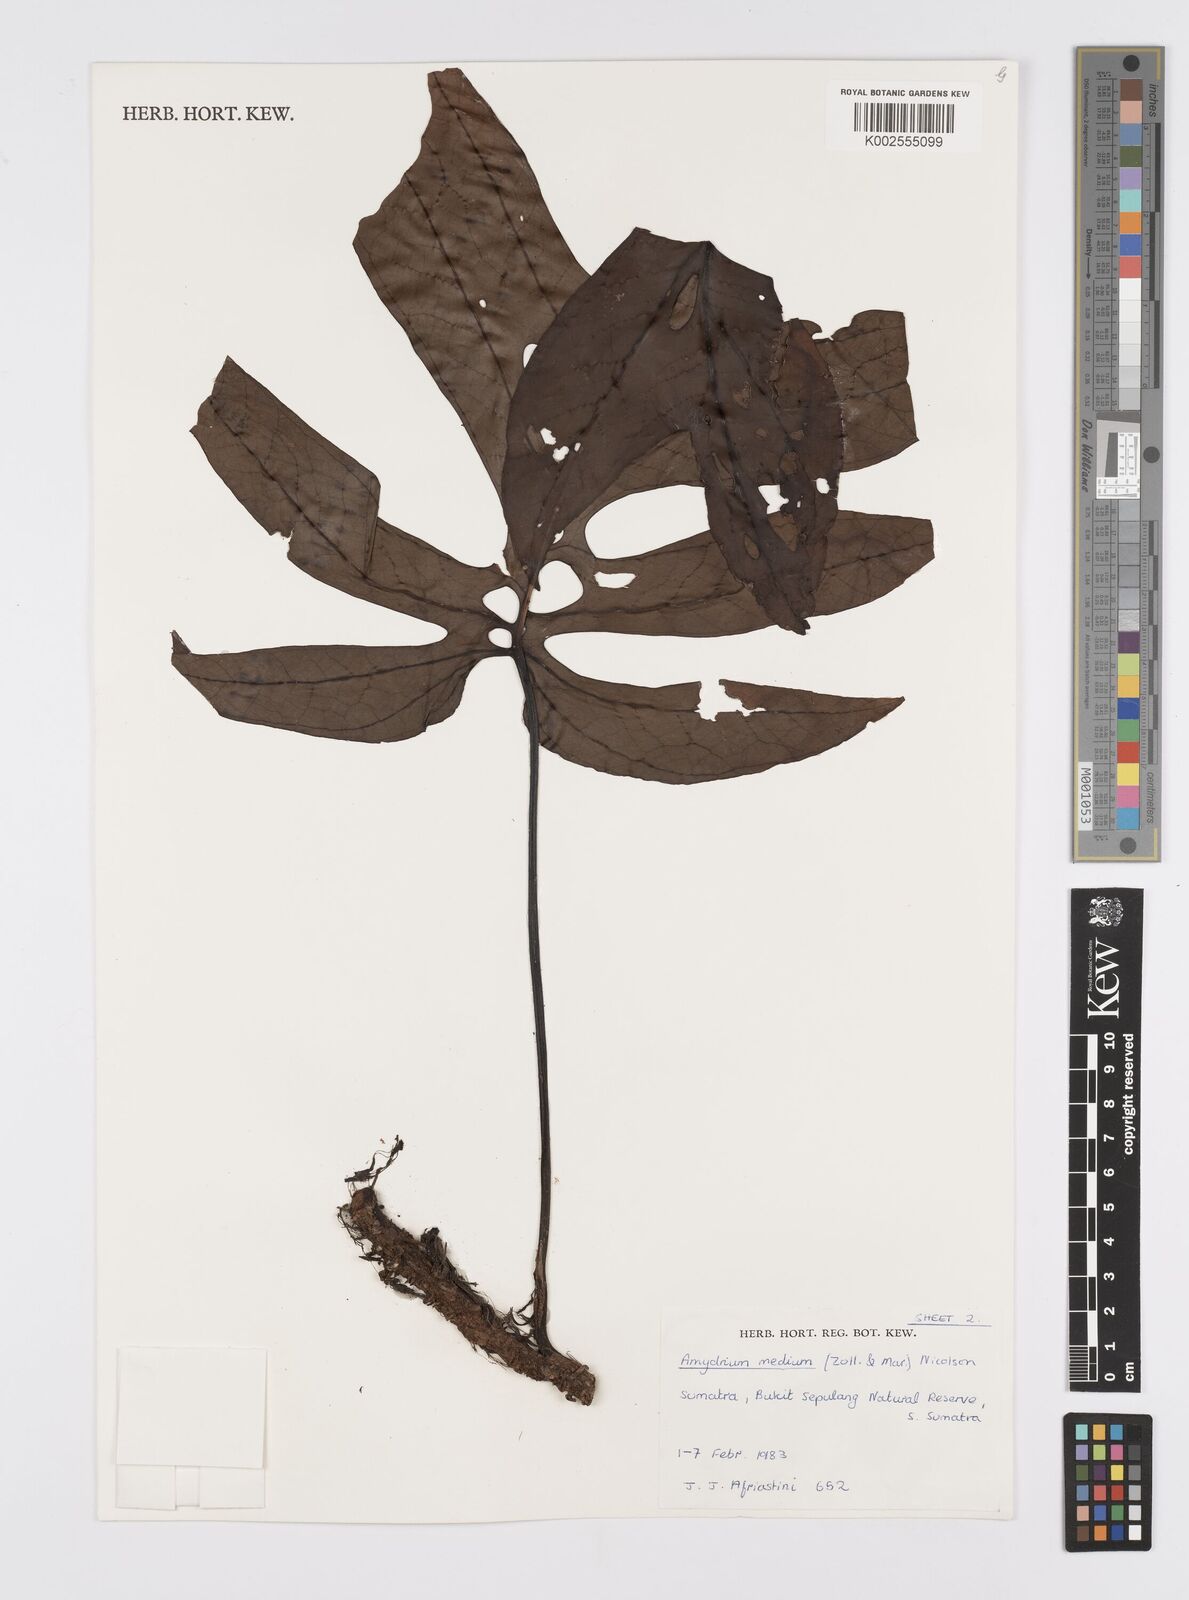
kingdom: Plantae
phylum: Tracheophyta
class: Liliopsida
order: Alismatales
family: Araceae
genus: Amydrium
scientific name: Amydrium medium
